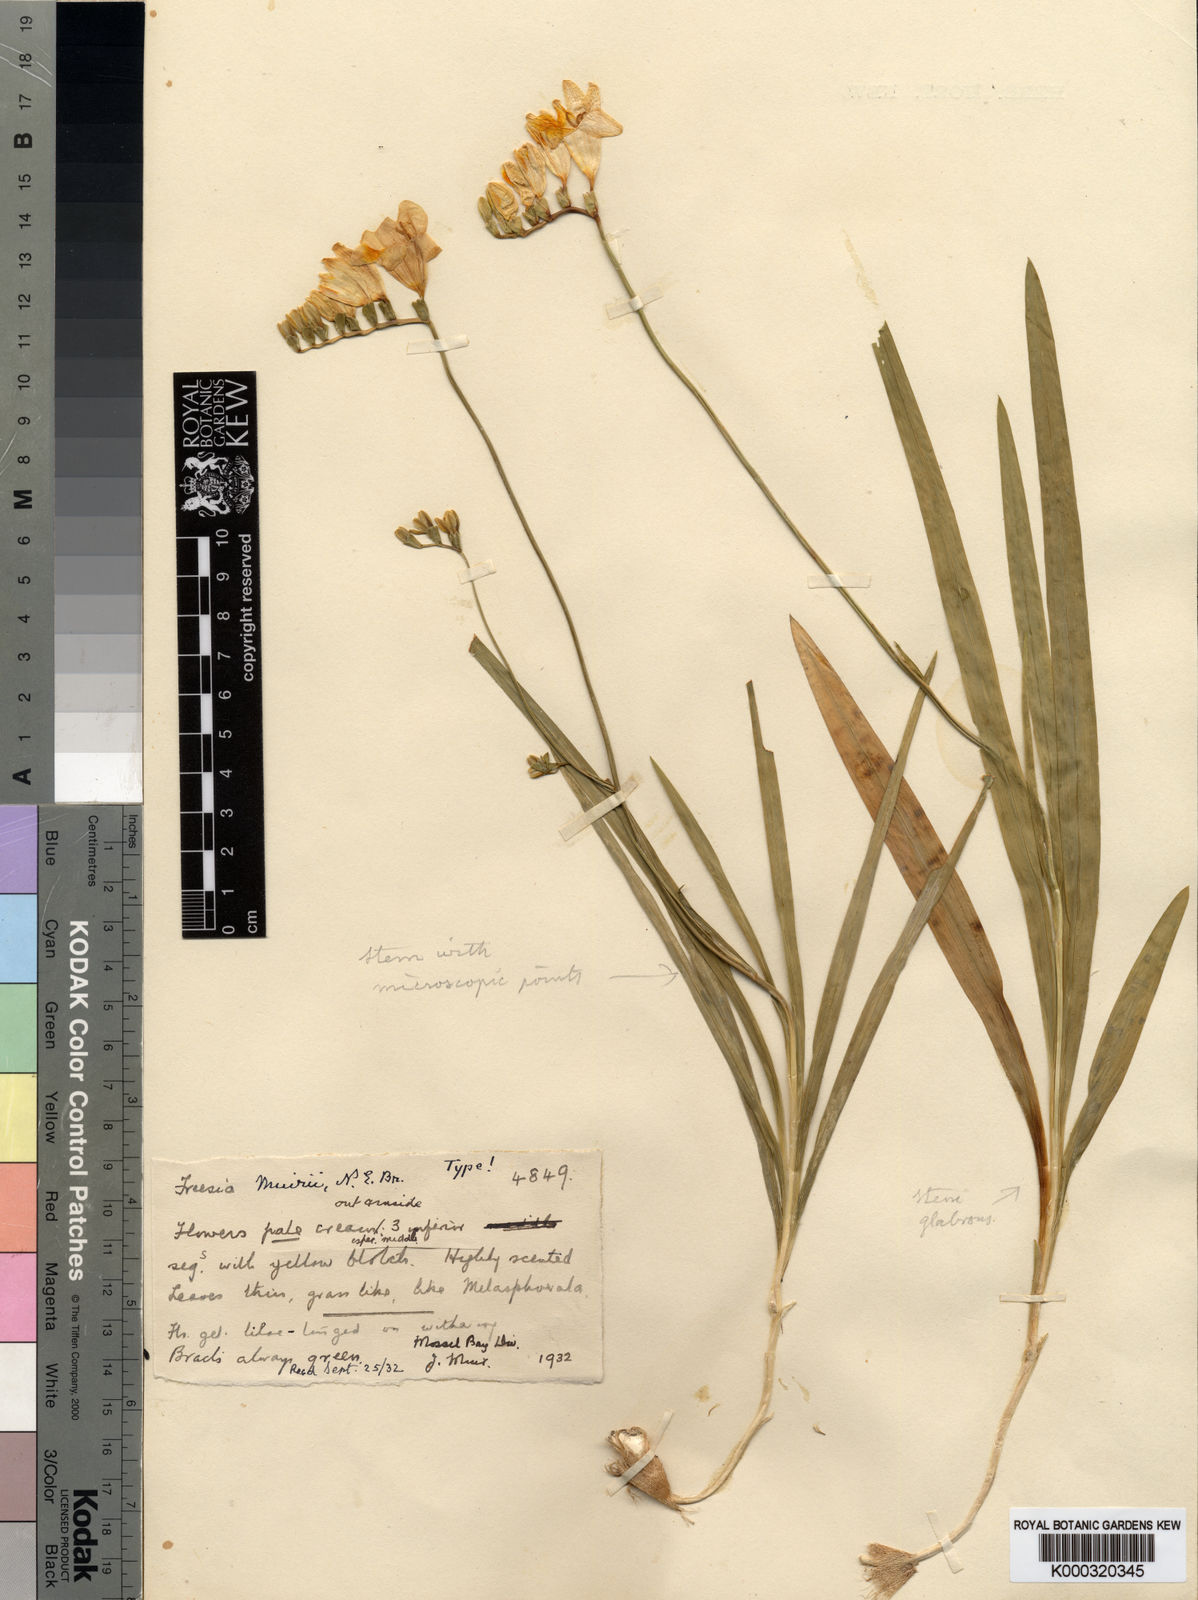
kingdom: Plantae
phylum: Tracheophyta
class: Liliopsida
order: Asparagales
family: Iridaceae
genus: Freesia
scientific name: Freesia leichtlinii
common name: Freesia
